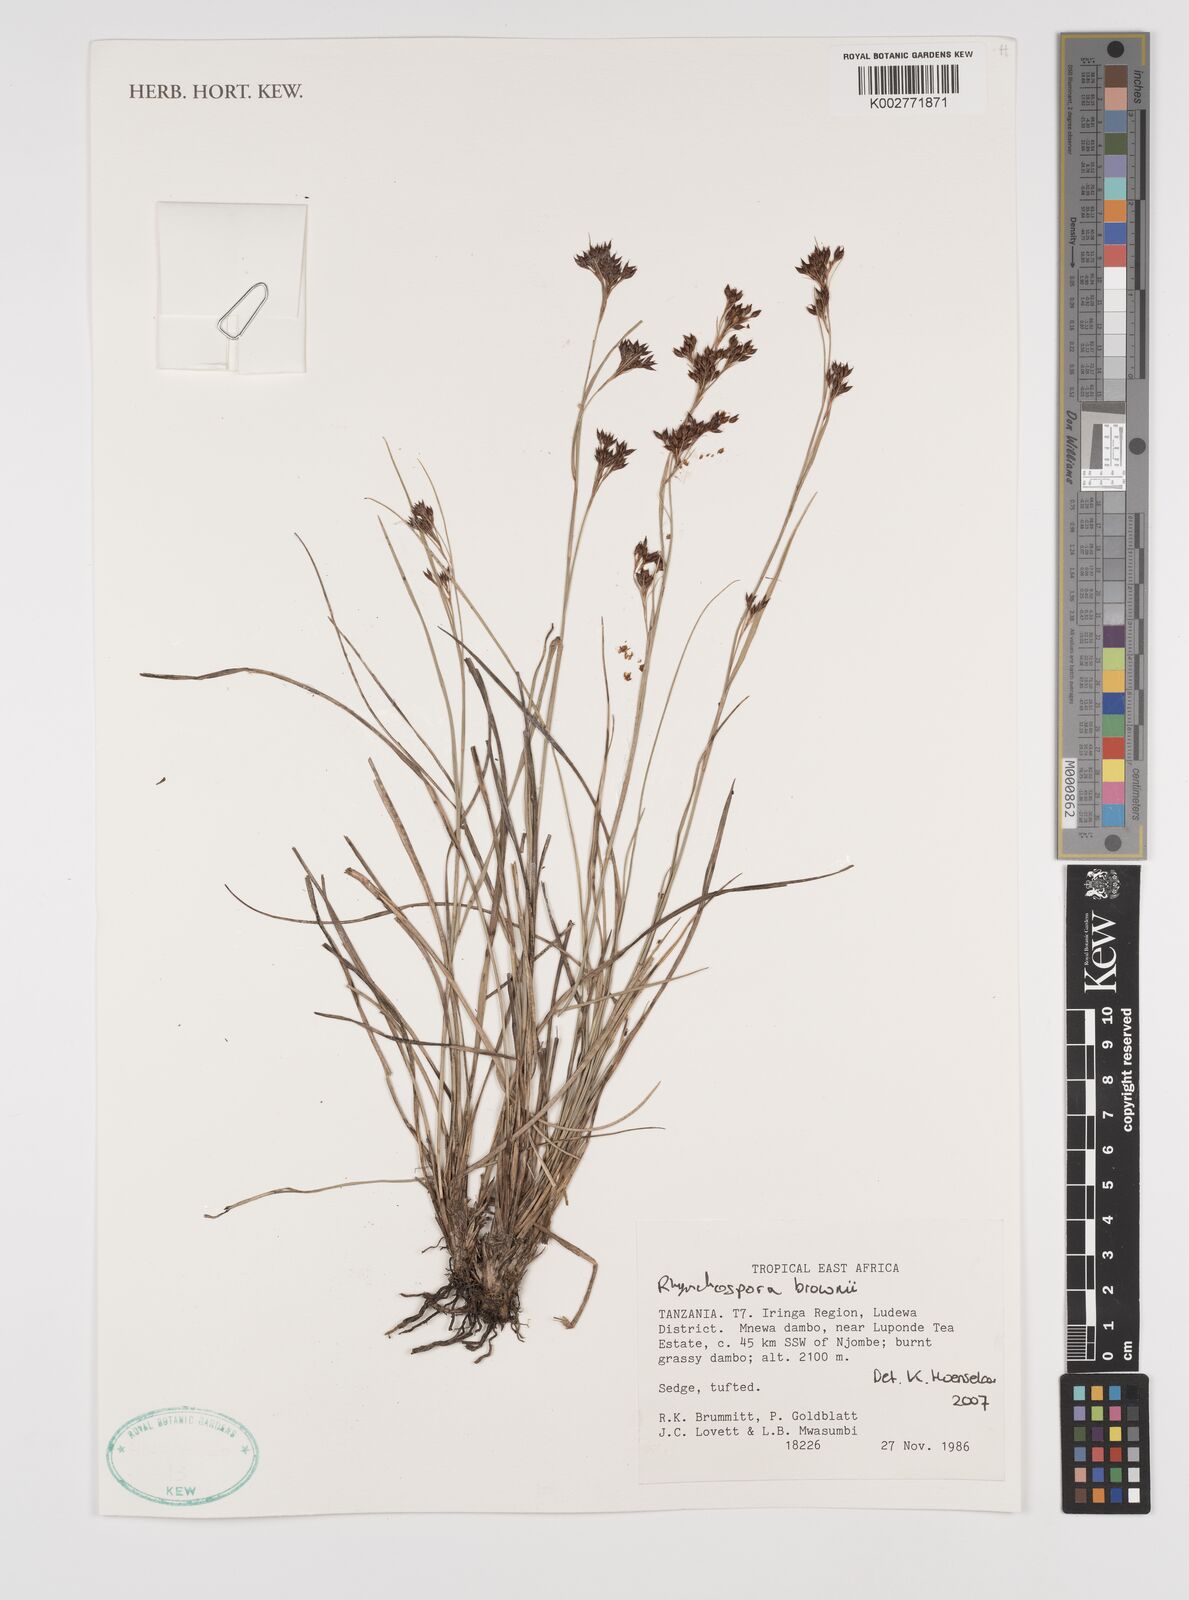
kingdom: Plantae
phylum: Tracheophyta
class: Liliopsida
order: Poales
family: Cyperaceae
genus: Rhynchospora
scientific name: Rhynchospora brownii
